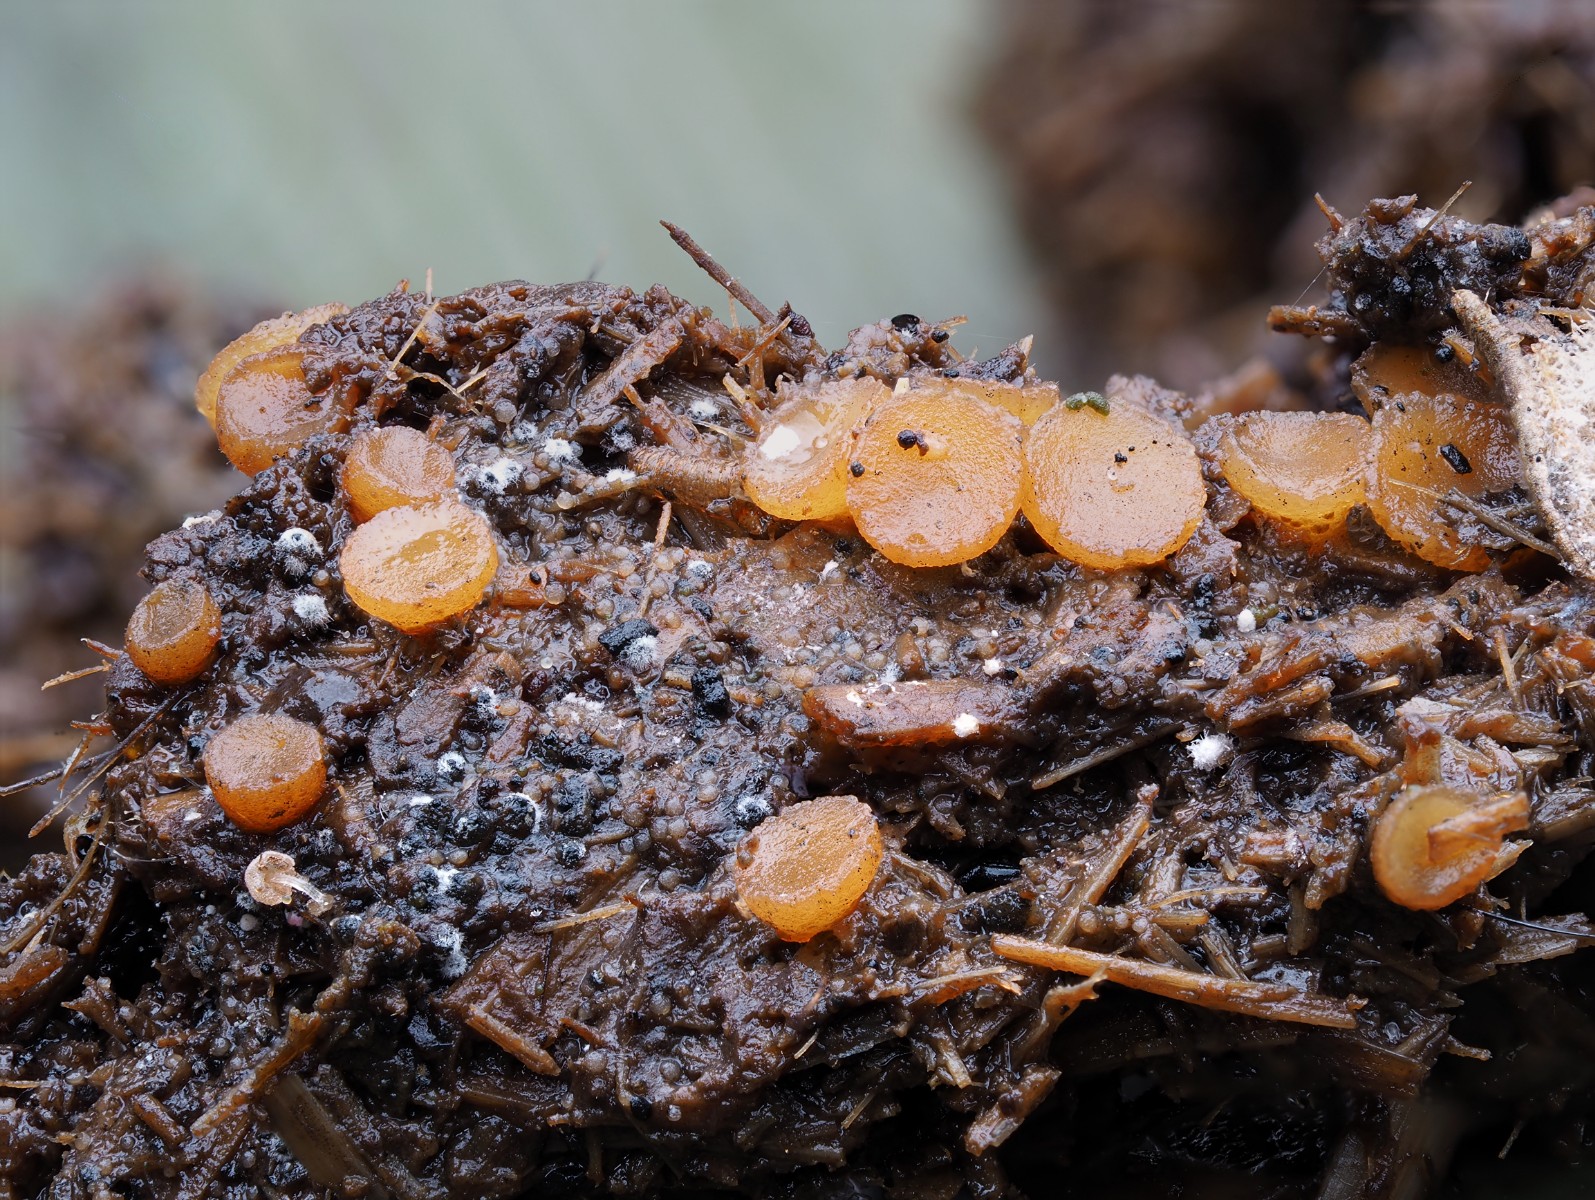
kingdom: Fungi
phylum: Ascomycota
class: Pezizomycetes
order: Pezizales
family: Pyronemataceae
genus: Cheilymenia
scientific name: Cheilymenia granulata
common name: møgbæger
